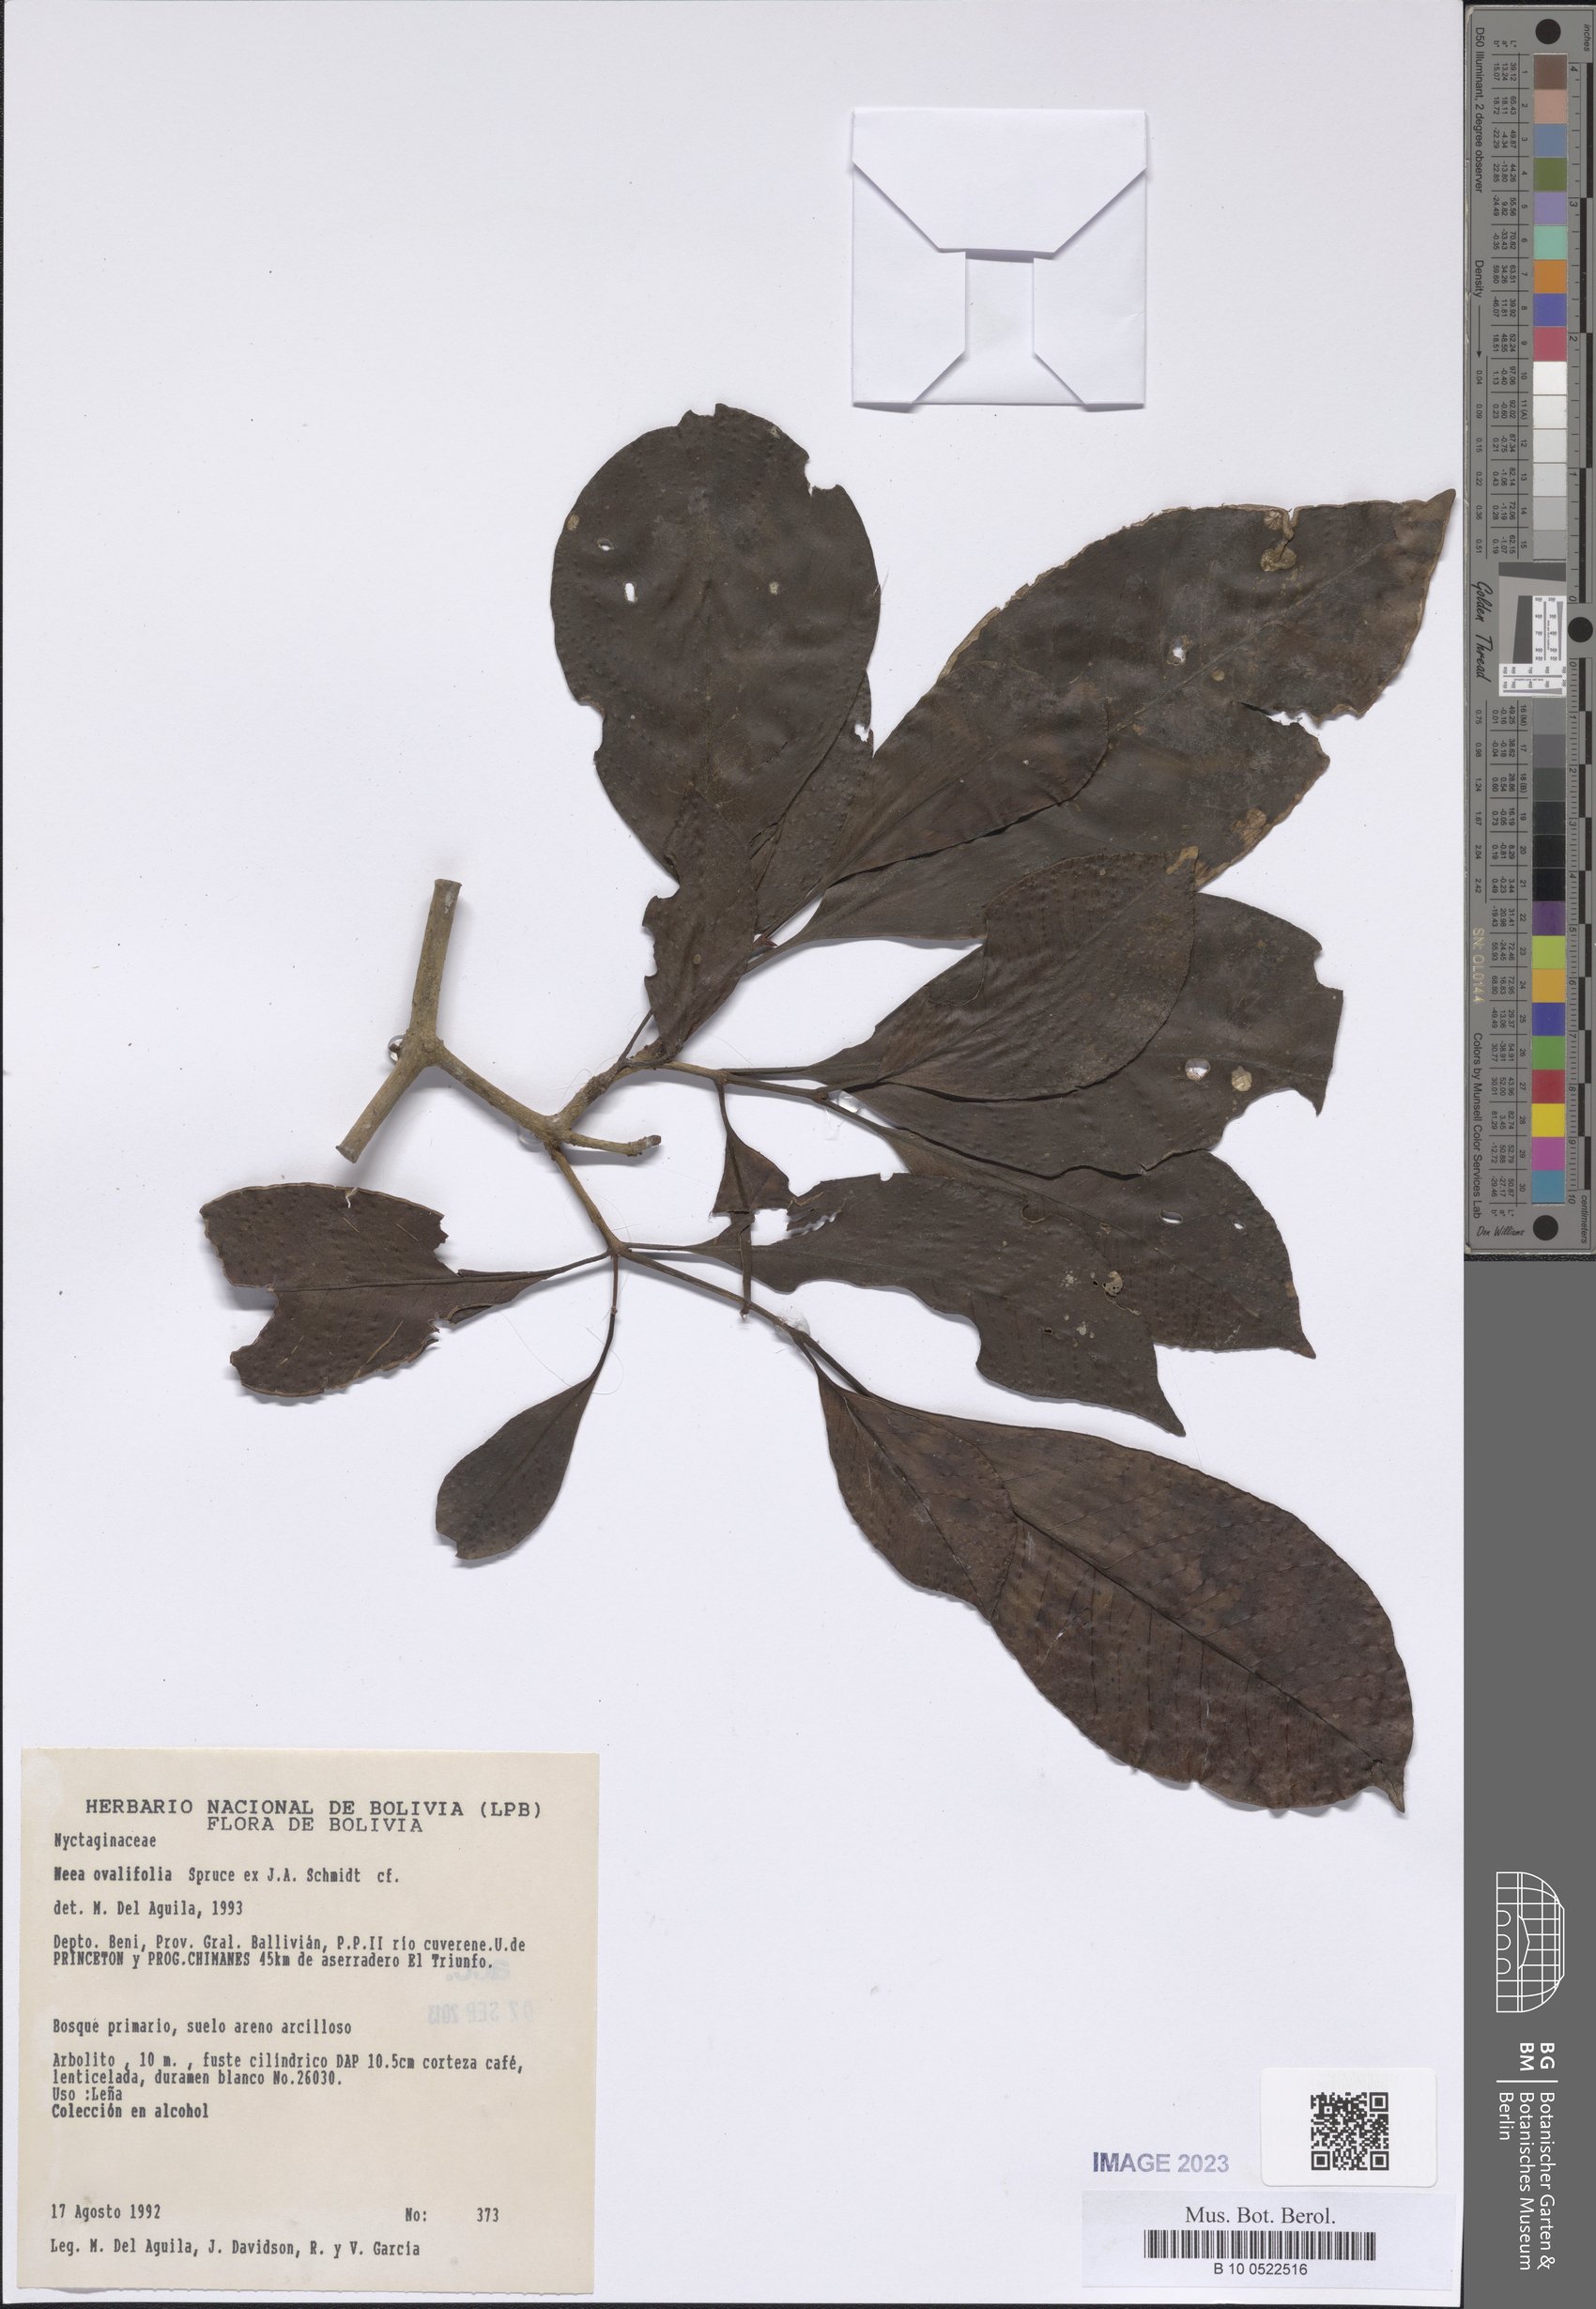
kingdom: Plantae
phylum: Tracheophyta
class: Magnoliopsida
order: Caryophyllales
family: Nyctaginaceae
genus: Neea
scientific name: Neea ovalifolia
